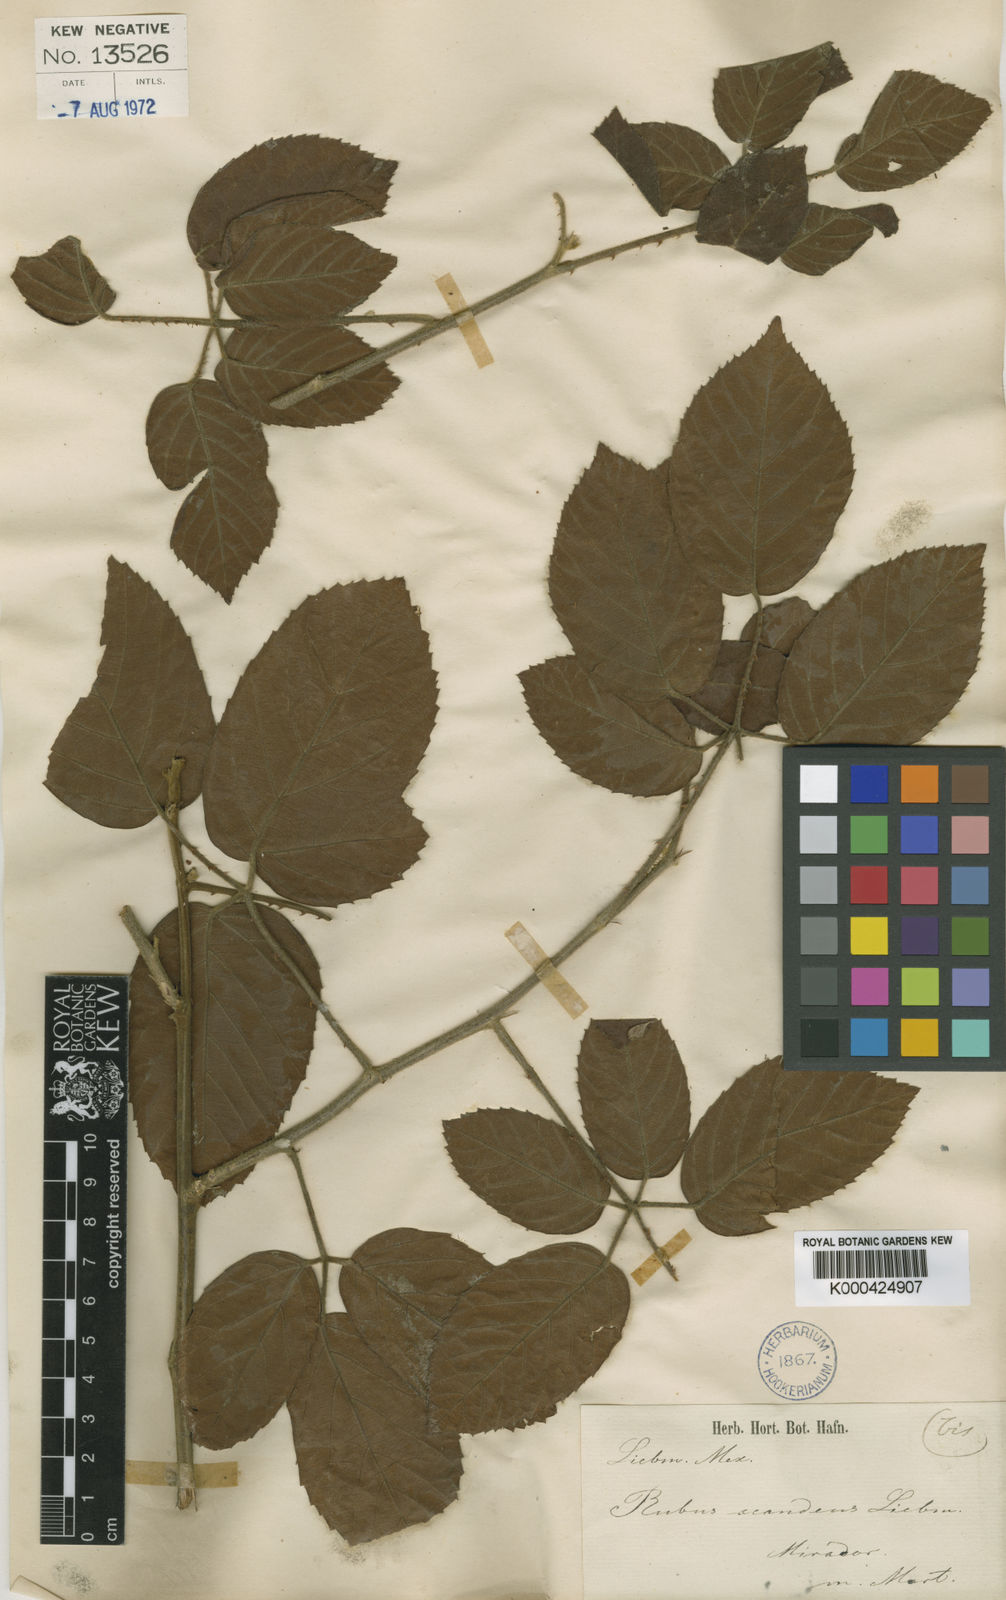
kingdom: Plantae
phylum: Tracheophyta
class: Magnoliopsida
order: Rosales
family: Rosaceae
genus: Rubus
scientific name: Rubus pseudofagifolius
